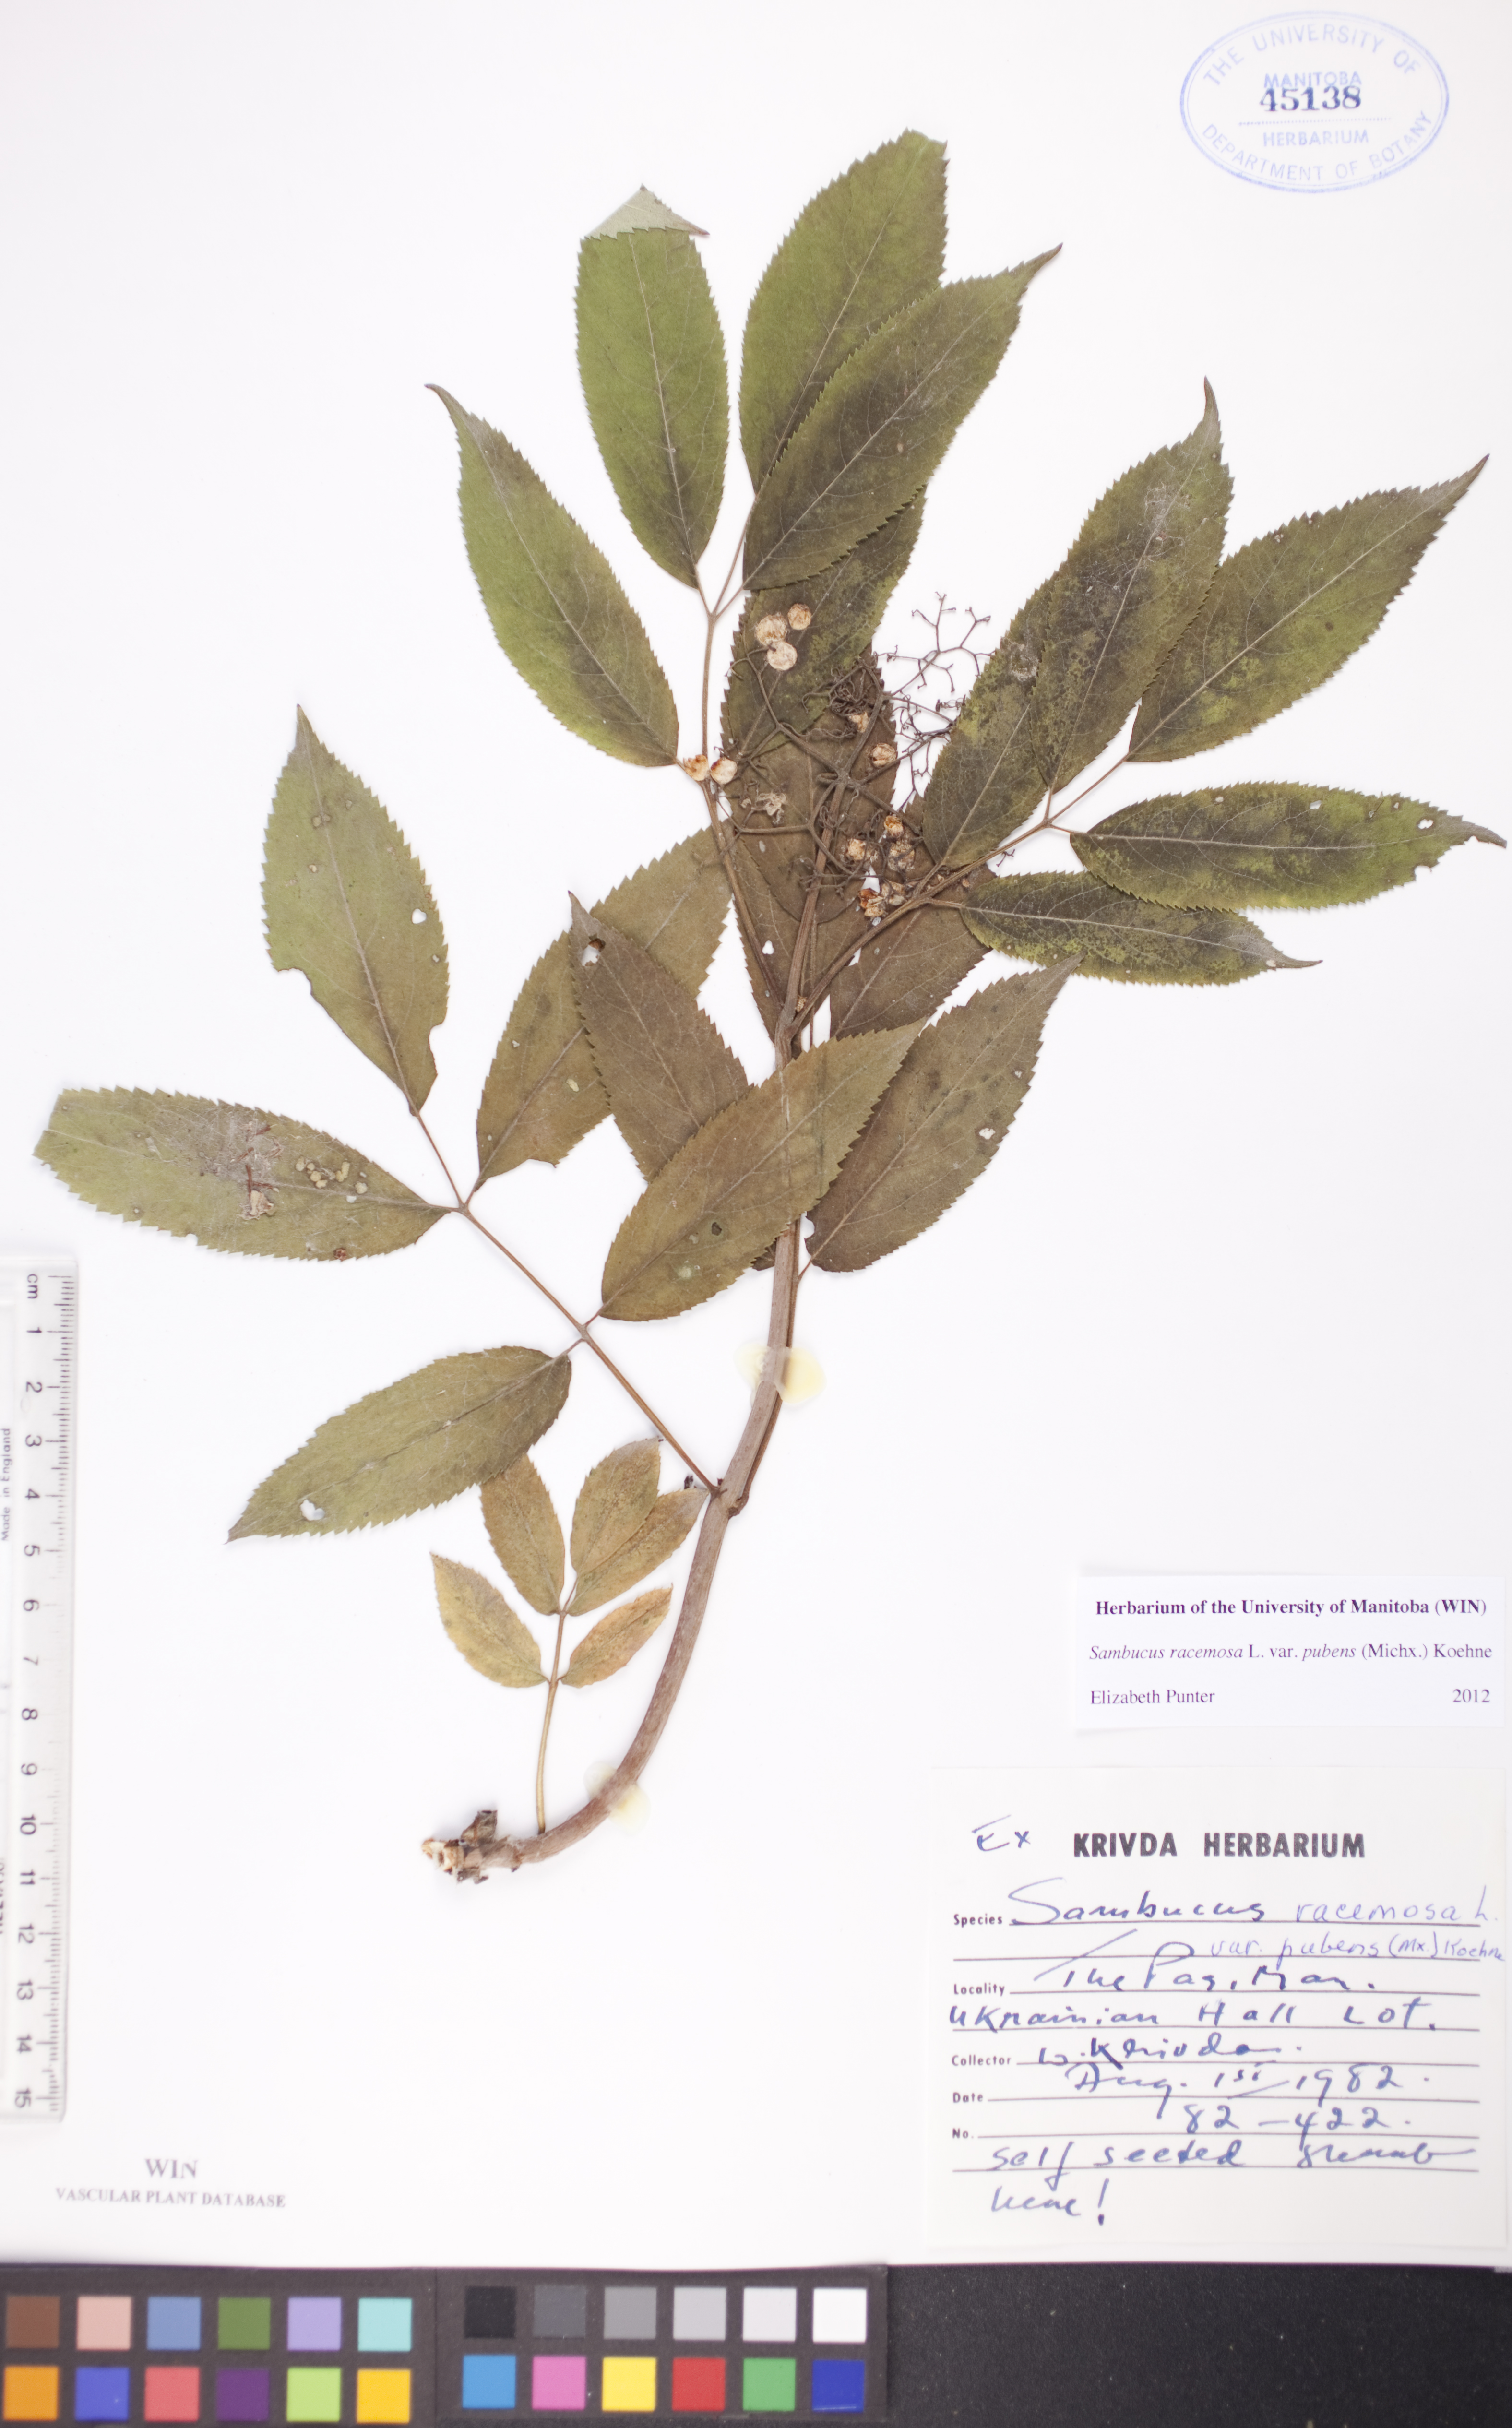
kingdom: Plantae
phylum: Tracheophyta
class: Magnoliopsida
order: Dipsacales
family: Viburnaceae
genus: Sambucus
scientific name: Sambucus racemosa
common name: Red-berried elder
